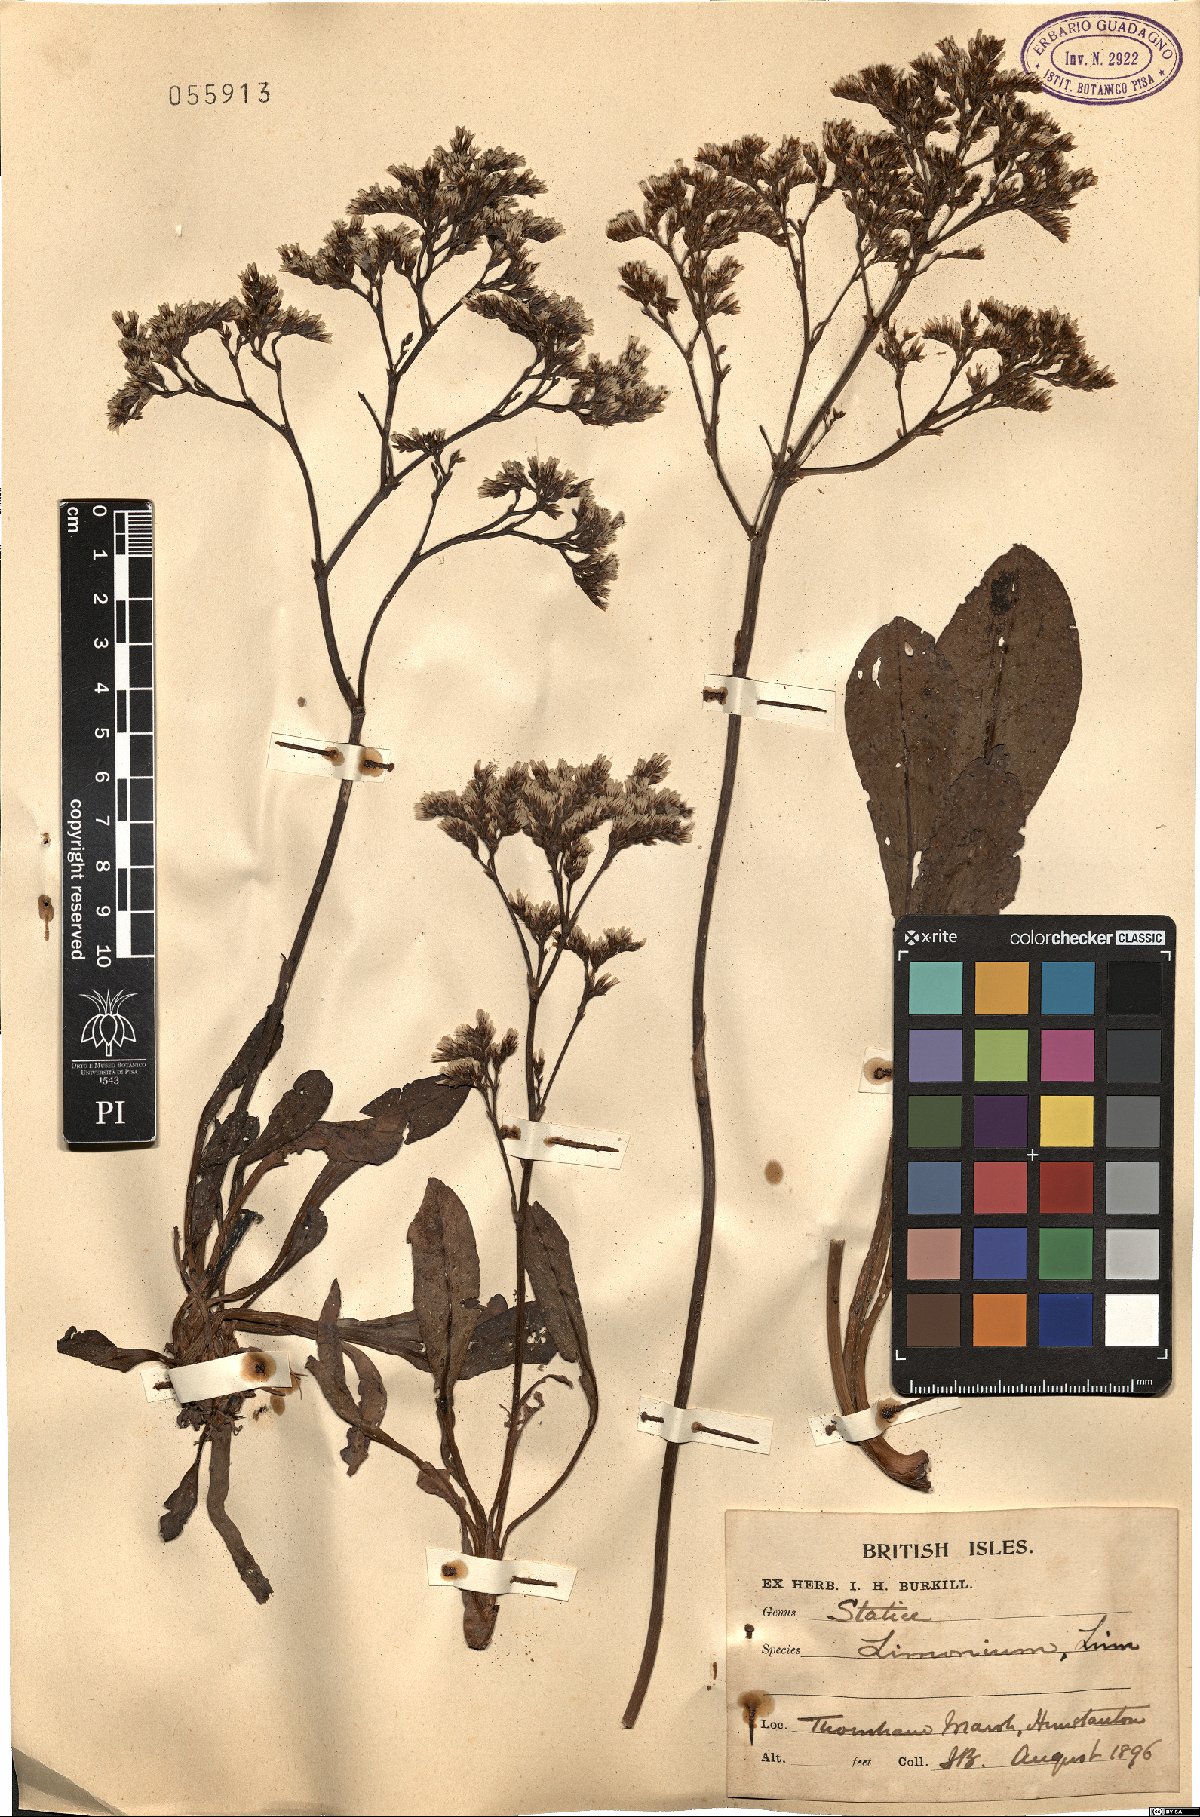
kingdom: Plantae
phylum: Tracheophyta
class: Magnoliopsida
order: Caryophyllales
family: Plumbaginaceae
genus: Limonium
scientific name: Limonium vulgare
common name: Common sea-lavender
